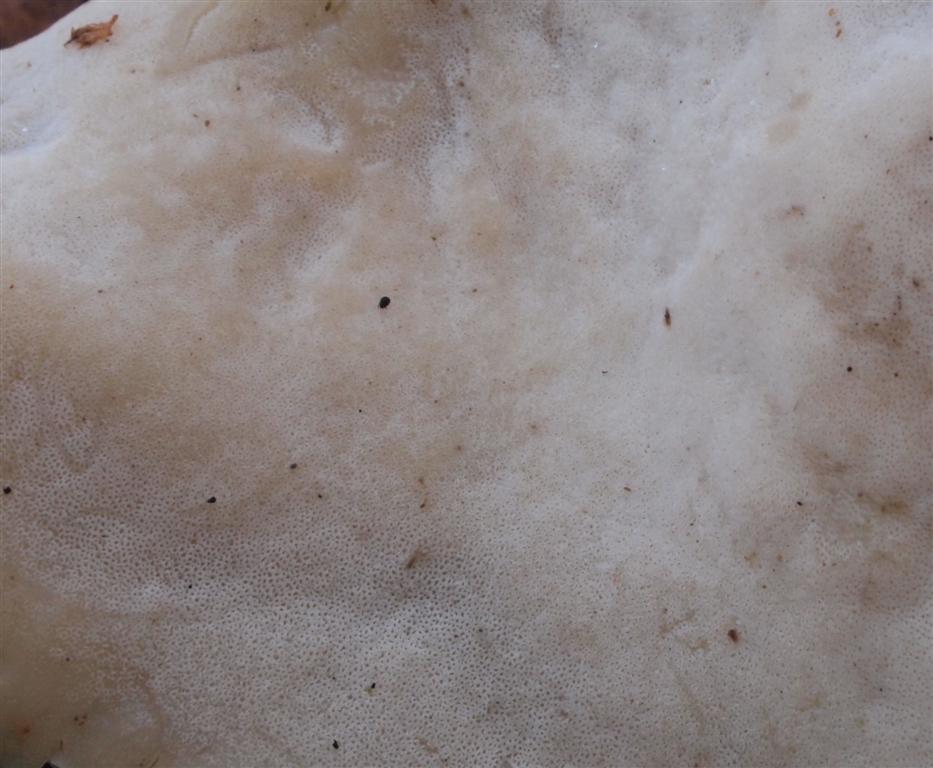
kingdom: Fungi
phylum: Basidiomycota
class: Agaricomycetes
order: Polyporales
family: Polyporaceae
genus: Picipes
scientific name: Picipes badius
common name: kastaniebrun stilkporesvamp
